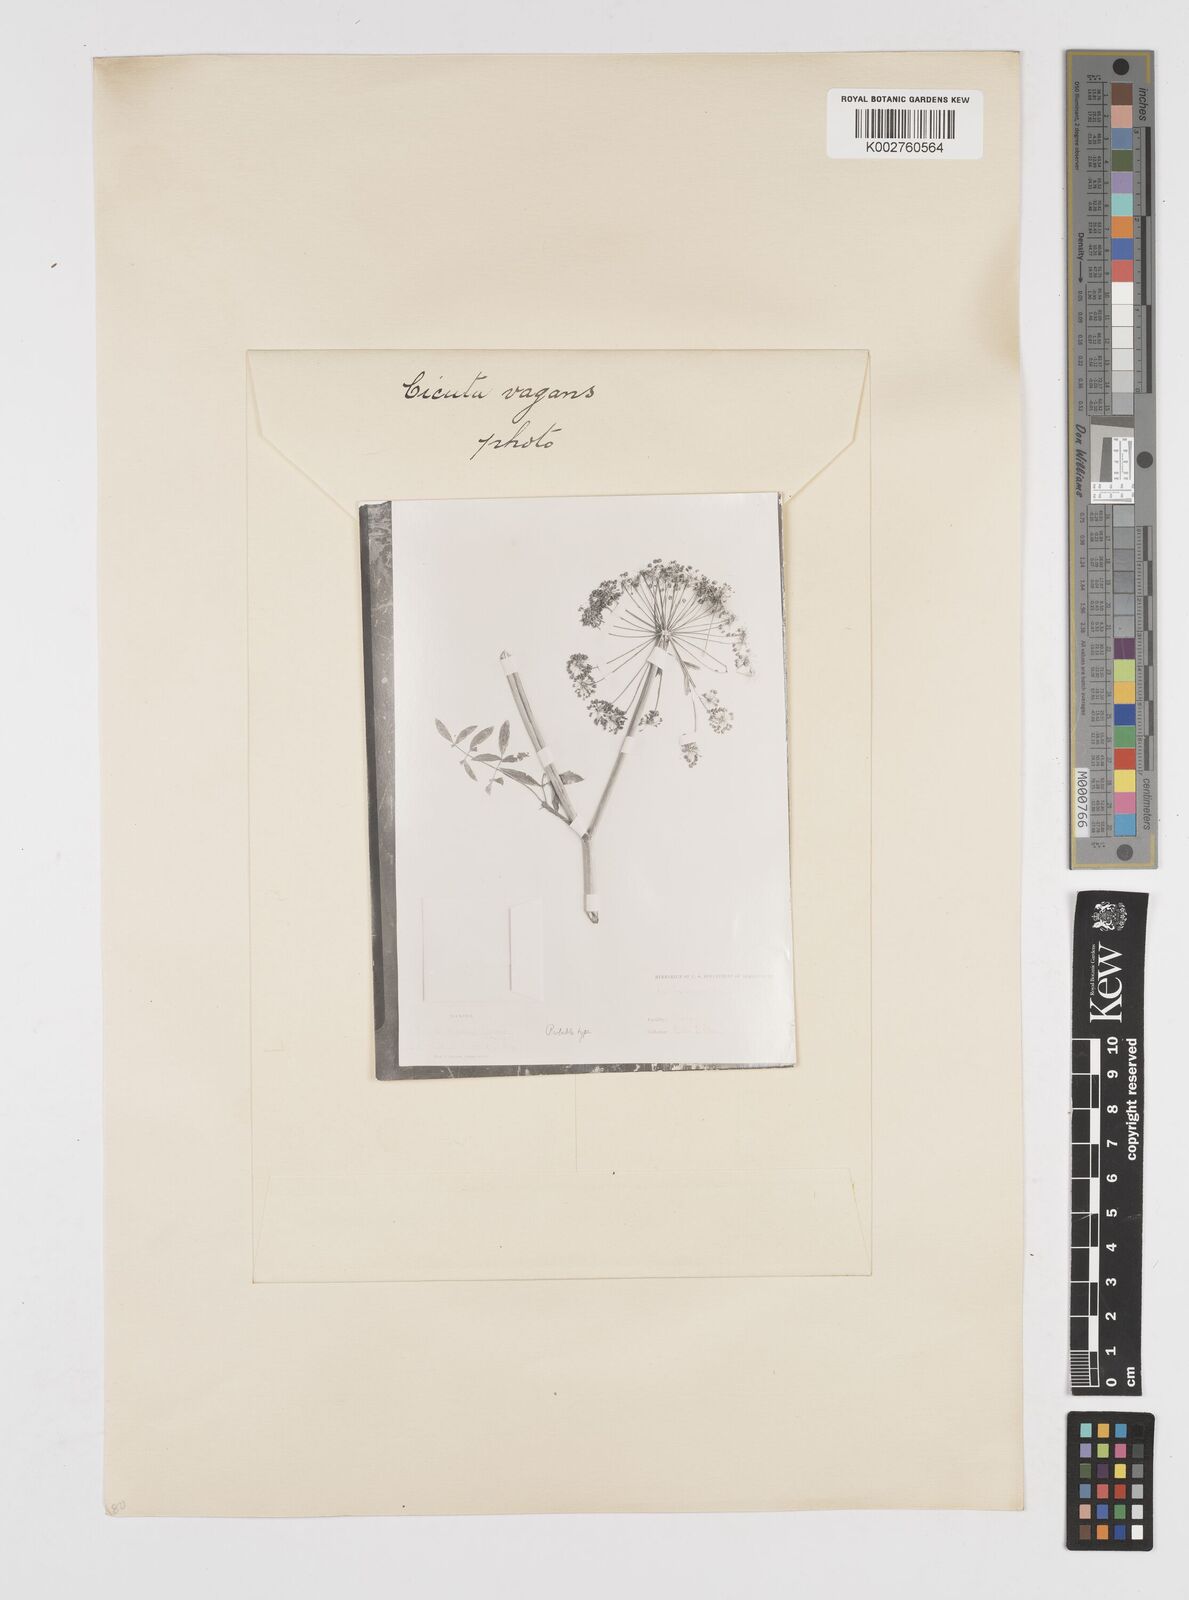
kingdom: Plantae
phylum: Tracheophyta
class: Magnoliopsida
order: Apiales
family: Apiaceae
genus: Cicuta
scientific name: Cicuta douglasii
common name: Western water-hemlock
